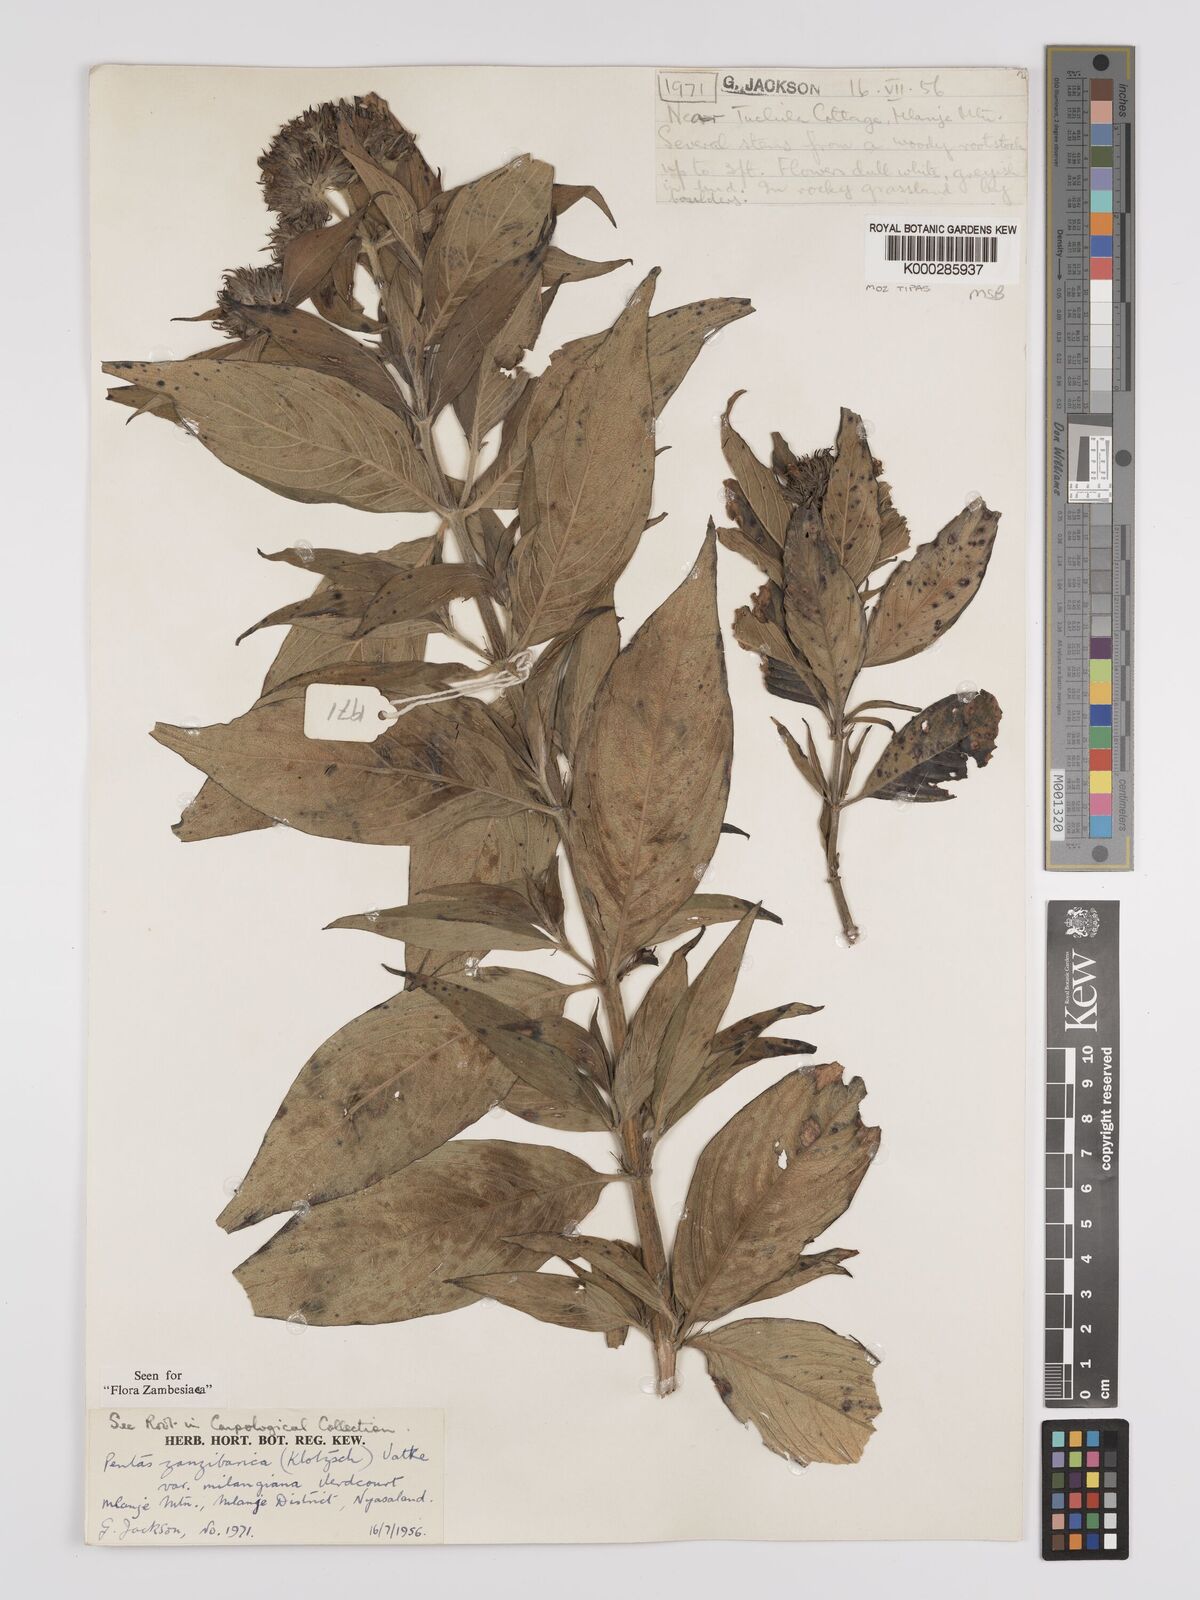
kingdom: Plantae
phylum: Tracheophyta
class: Magnoliopsida
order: Gentianales
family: Rubiaceae
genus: Pentas
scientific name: Pentas zanzibarica
